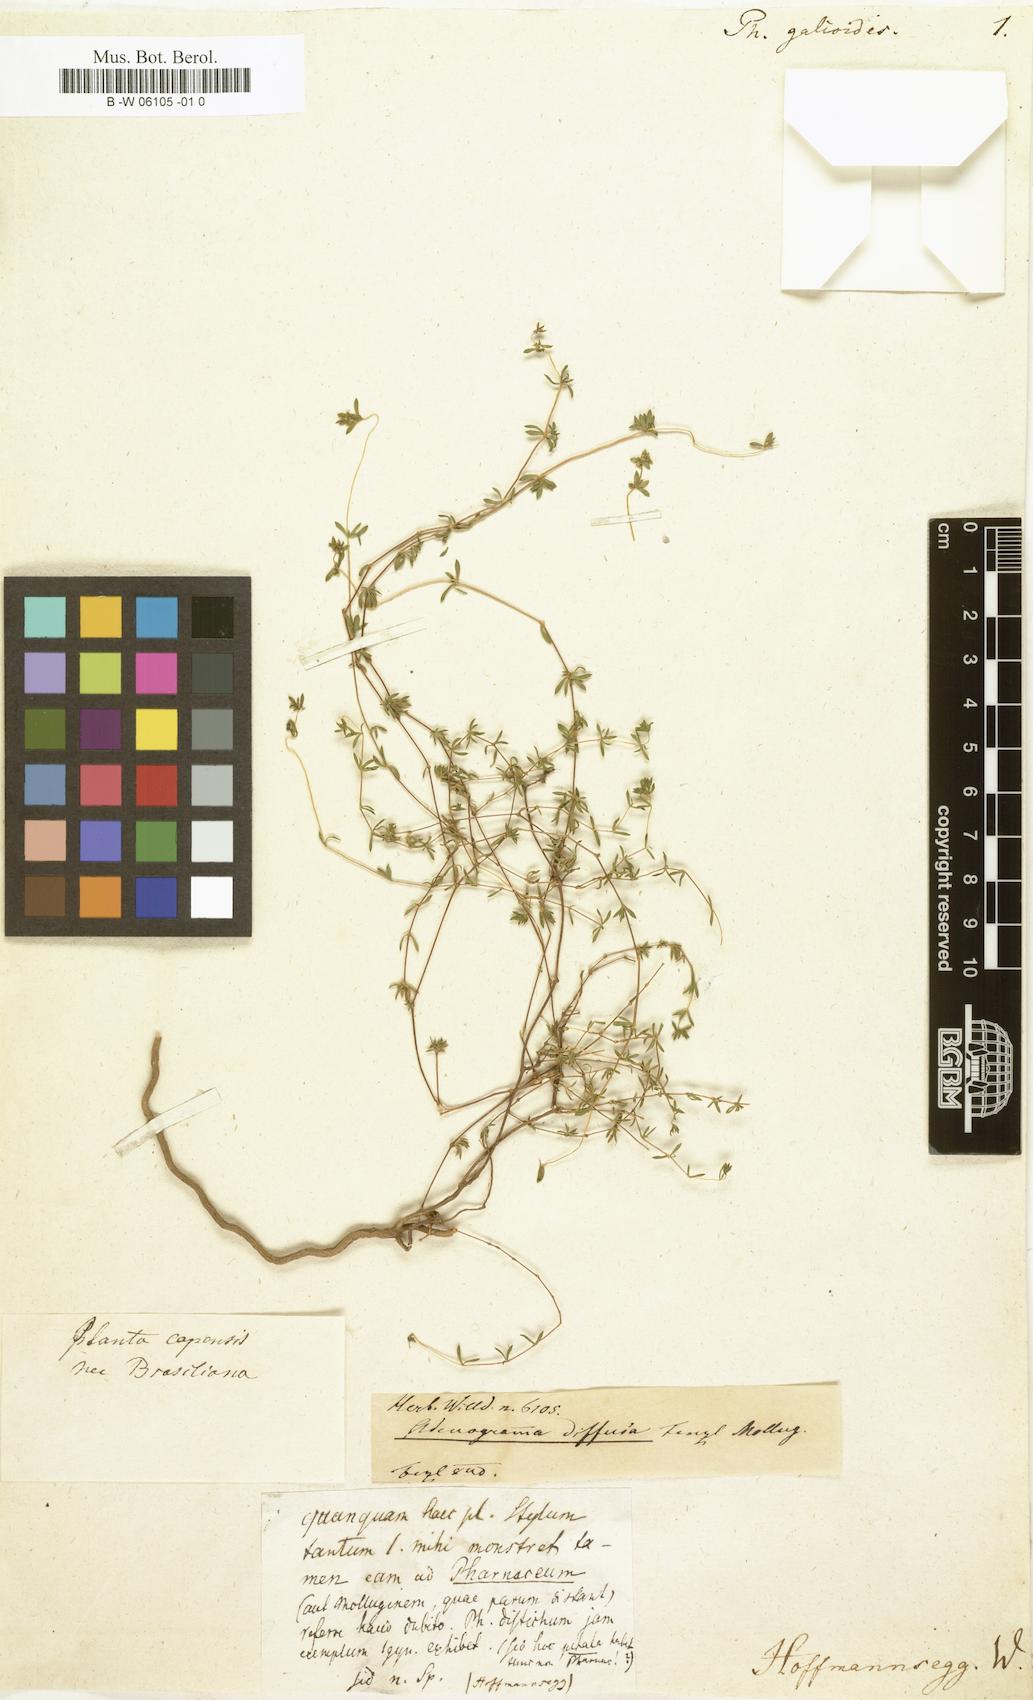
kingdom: Plantae
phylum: Tracheophyta
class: Magnoliopsida
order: Caryophyllales
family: Molluginaceae
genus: Mollugo
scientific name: Mollugo verticillata
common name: Green carpetweed
